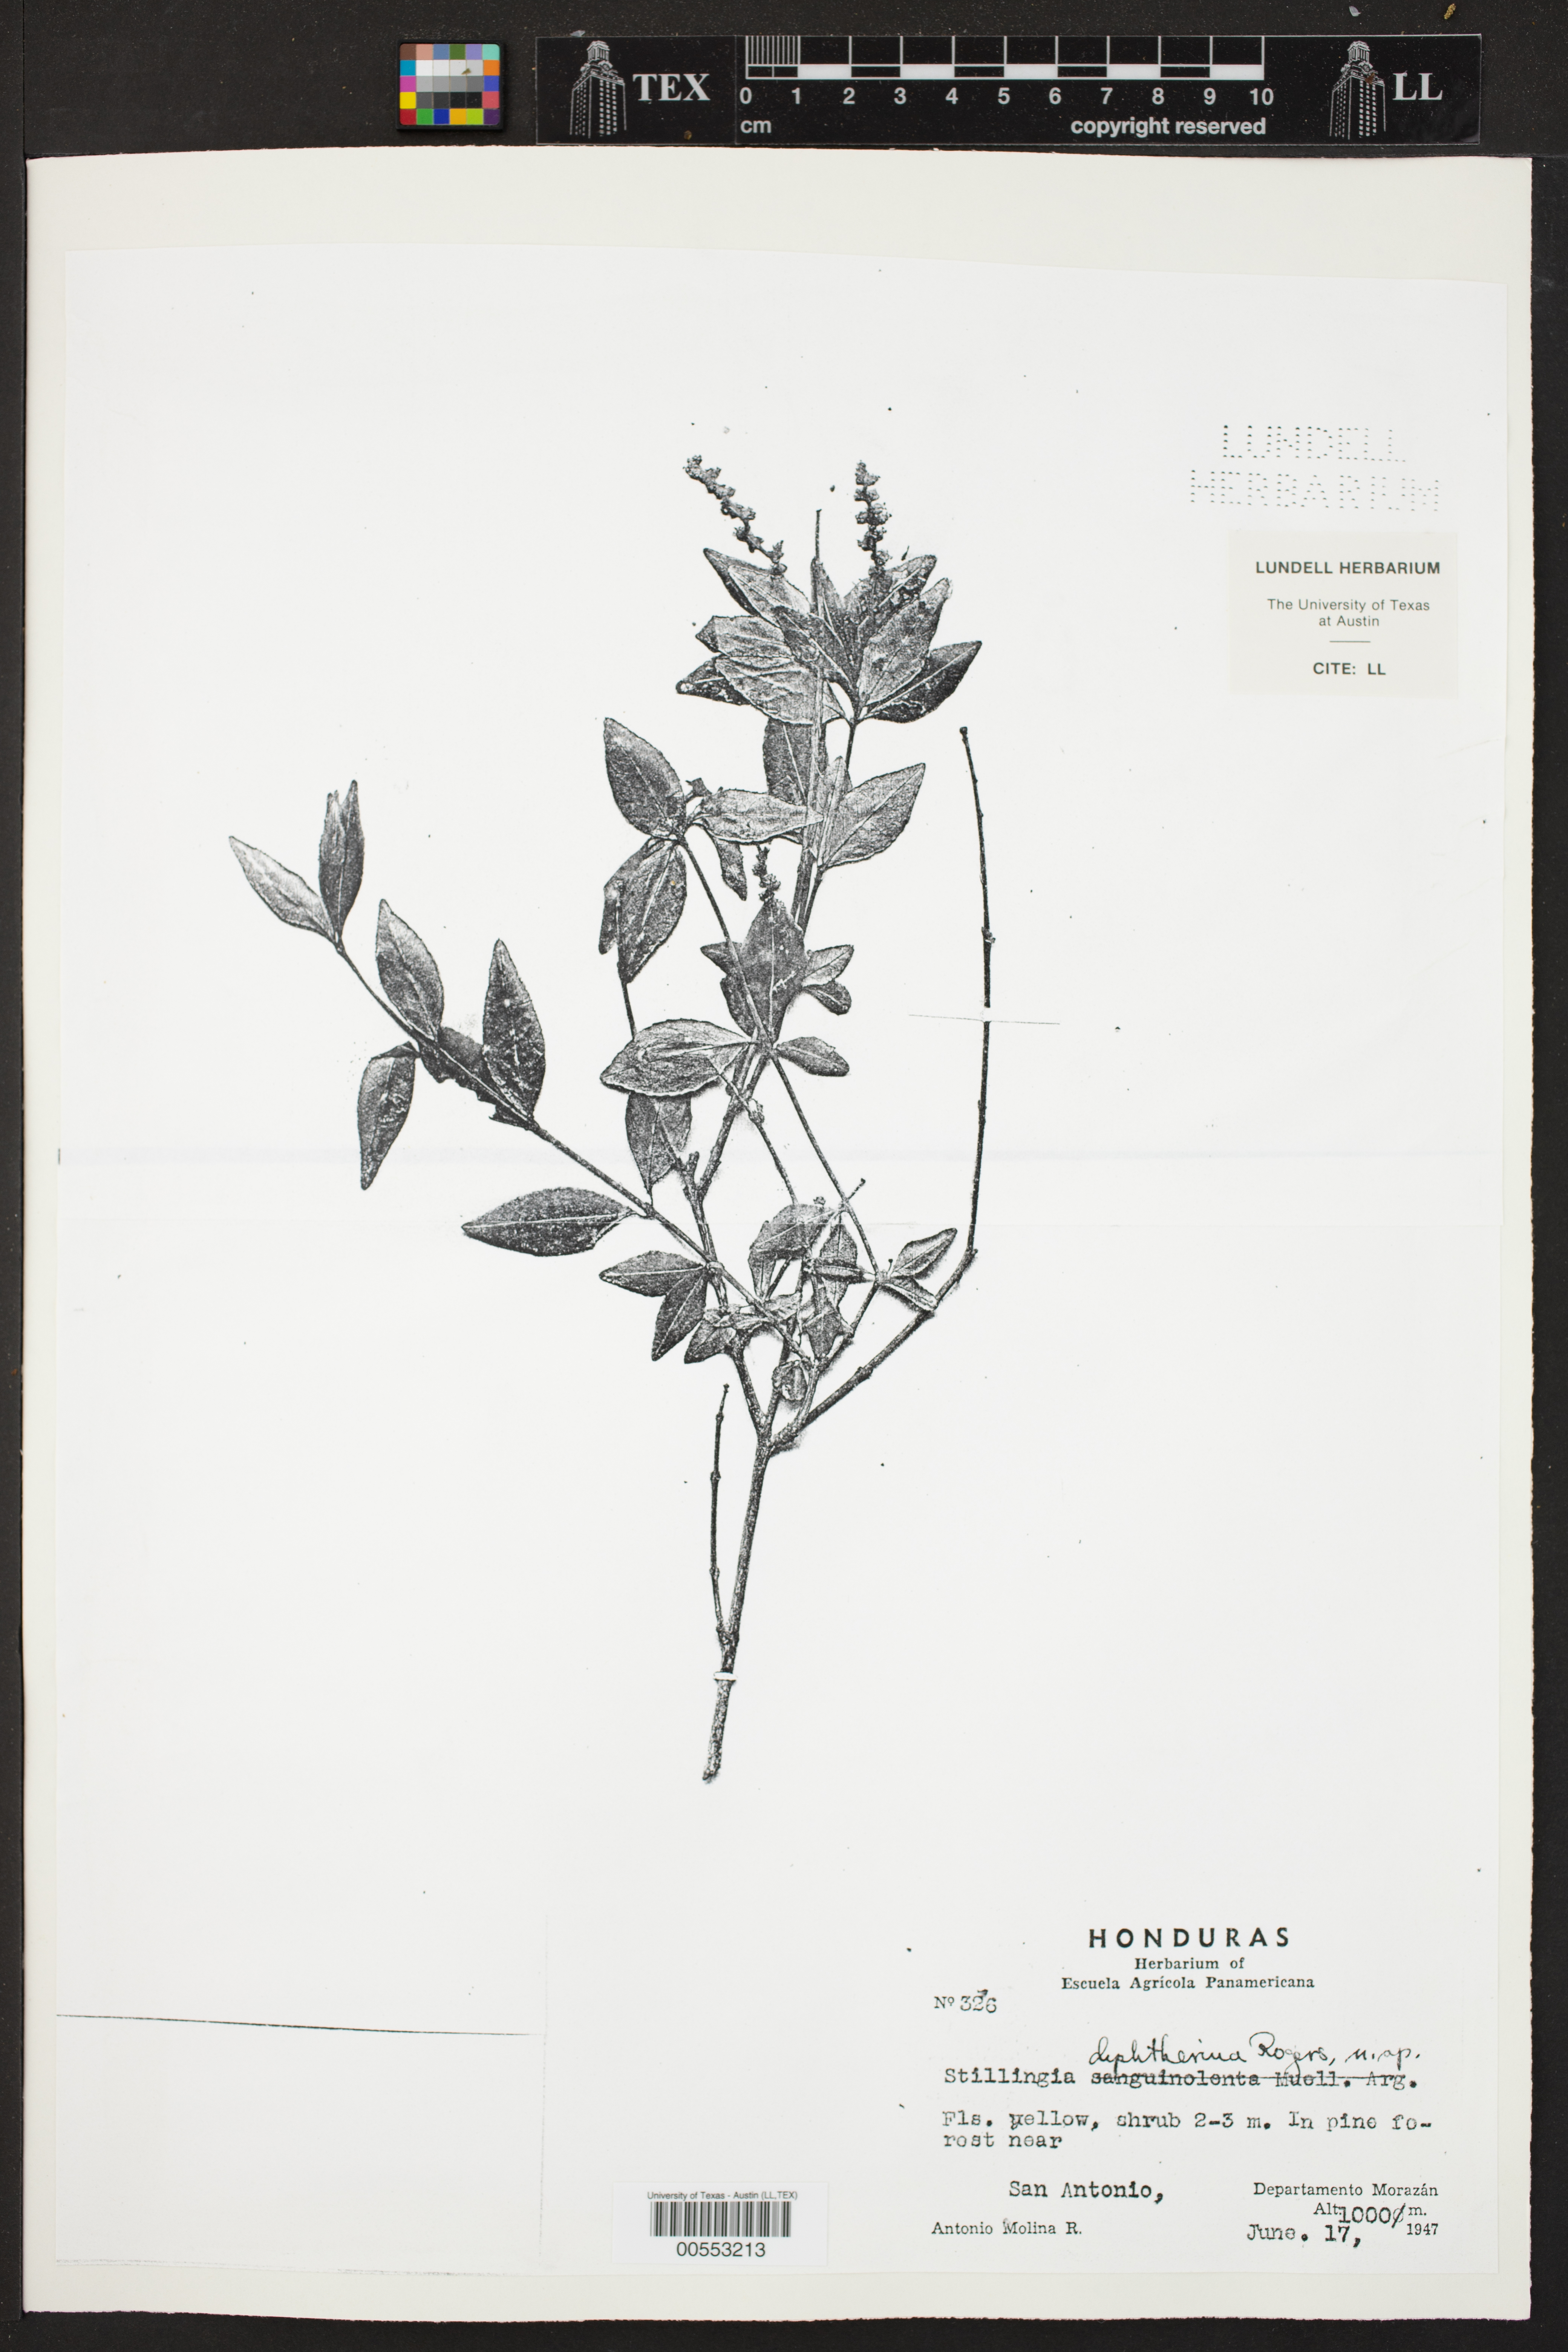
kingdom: Plantae
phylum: Tracheophyta
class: Magnoliopsida
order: Malpighiales
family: Euphorbiaceae
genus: Stillingia
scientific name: Stillingia diphtherina
